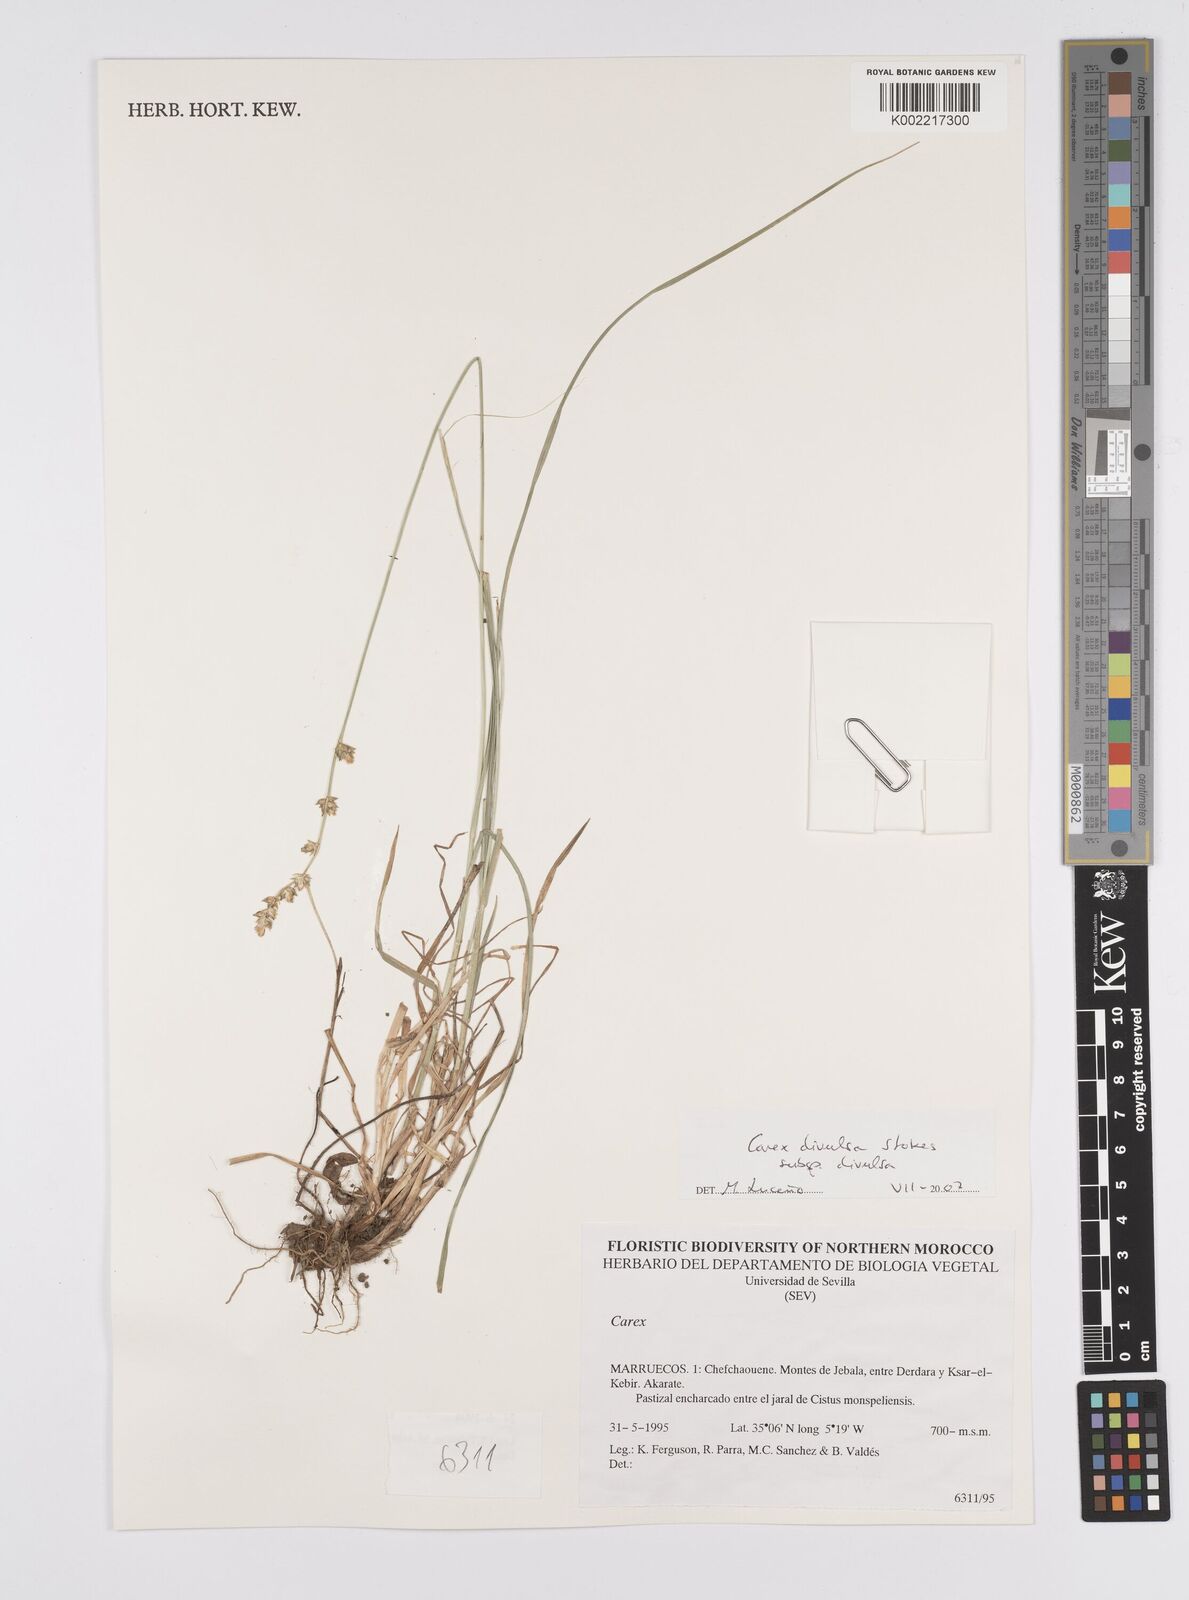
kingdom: Plantae
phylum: Tracheophyta
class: Liliopsida
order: Poales
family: Cyperaceae
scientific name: Cyperaceae
